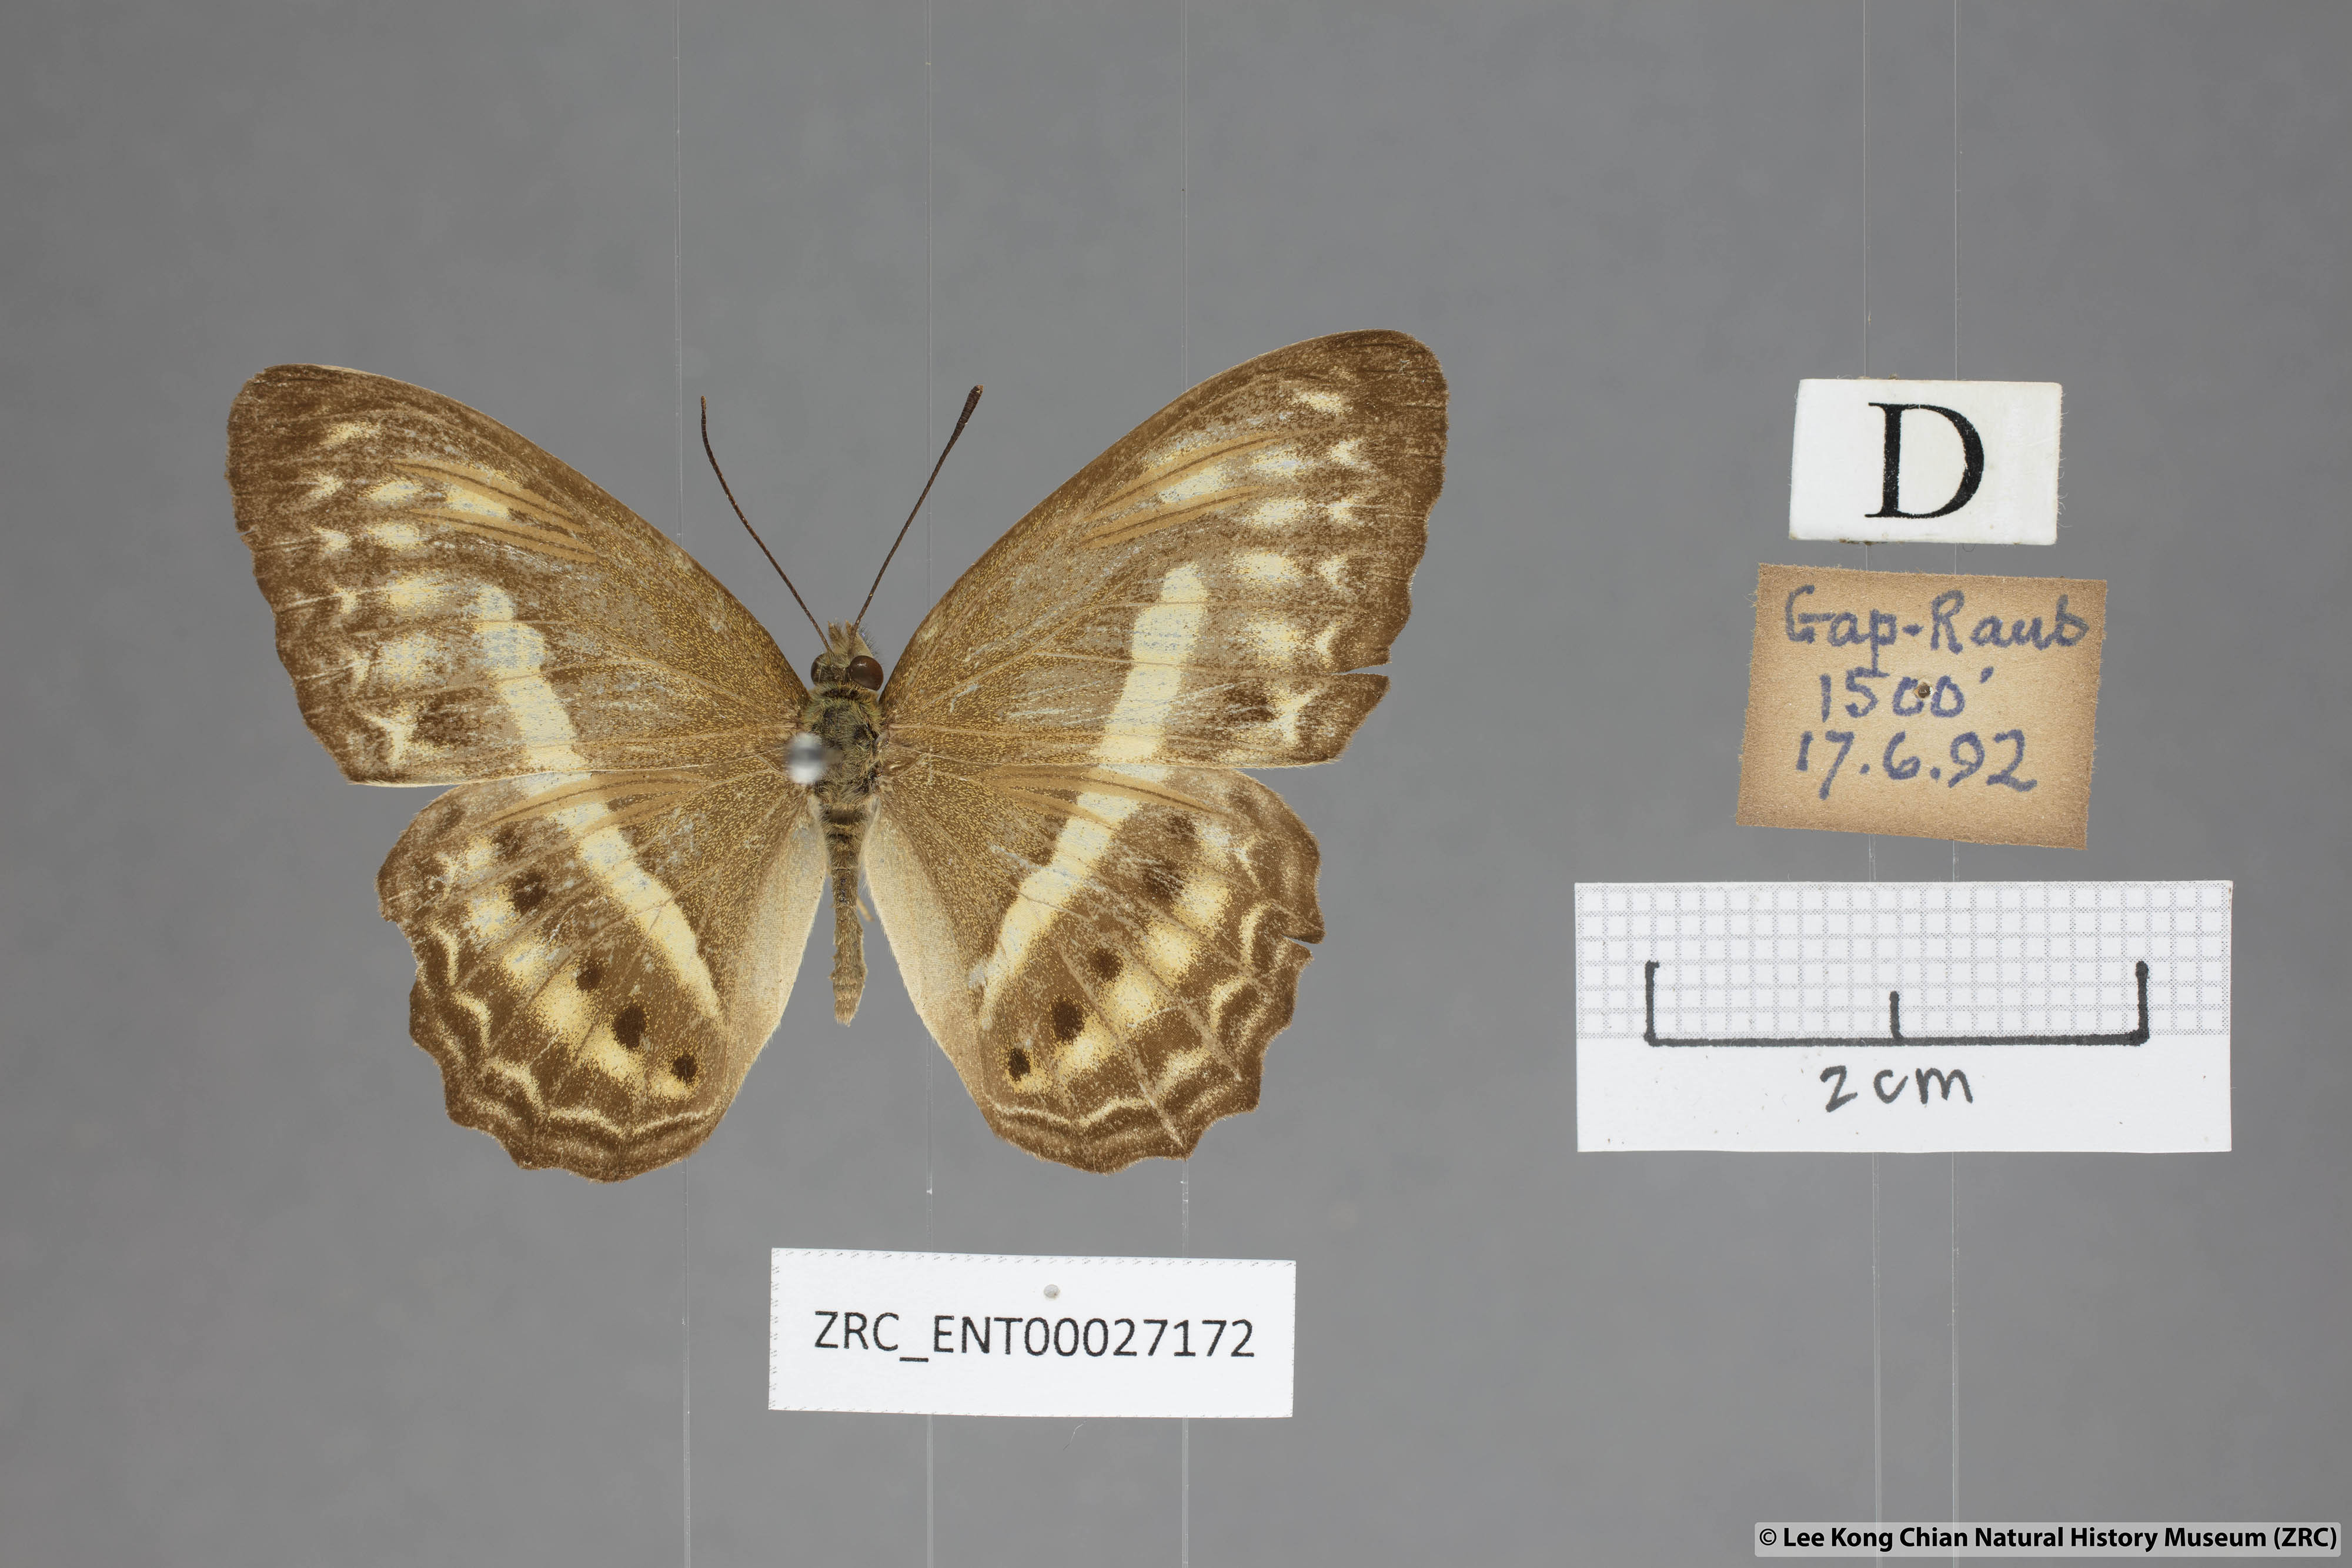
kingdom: Animalia
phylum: Arthropoda
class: Insecta
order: Lepidoptera
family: Nymphalidae
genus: Cirrochroa
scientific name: Cirrochroa fasciata
